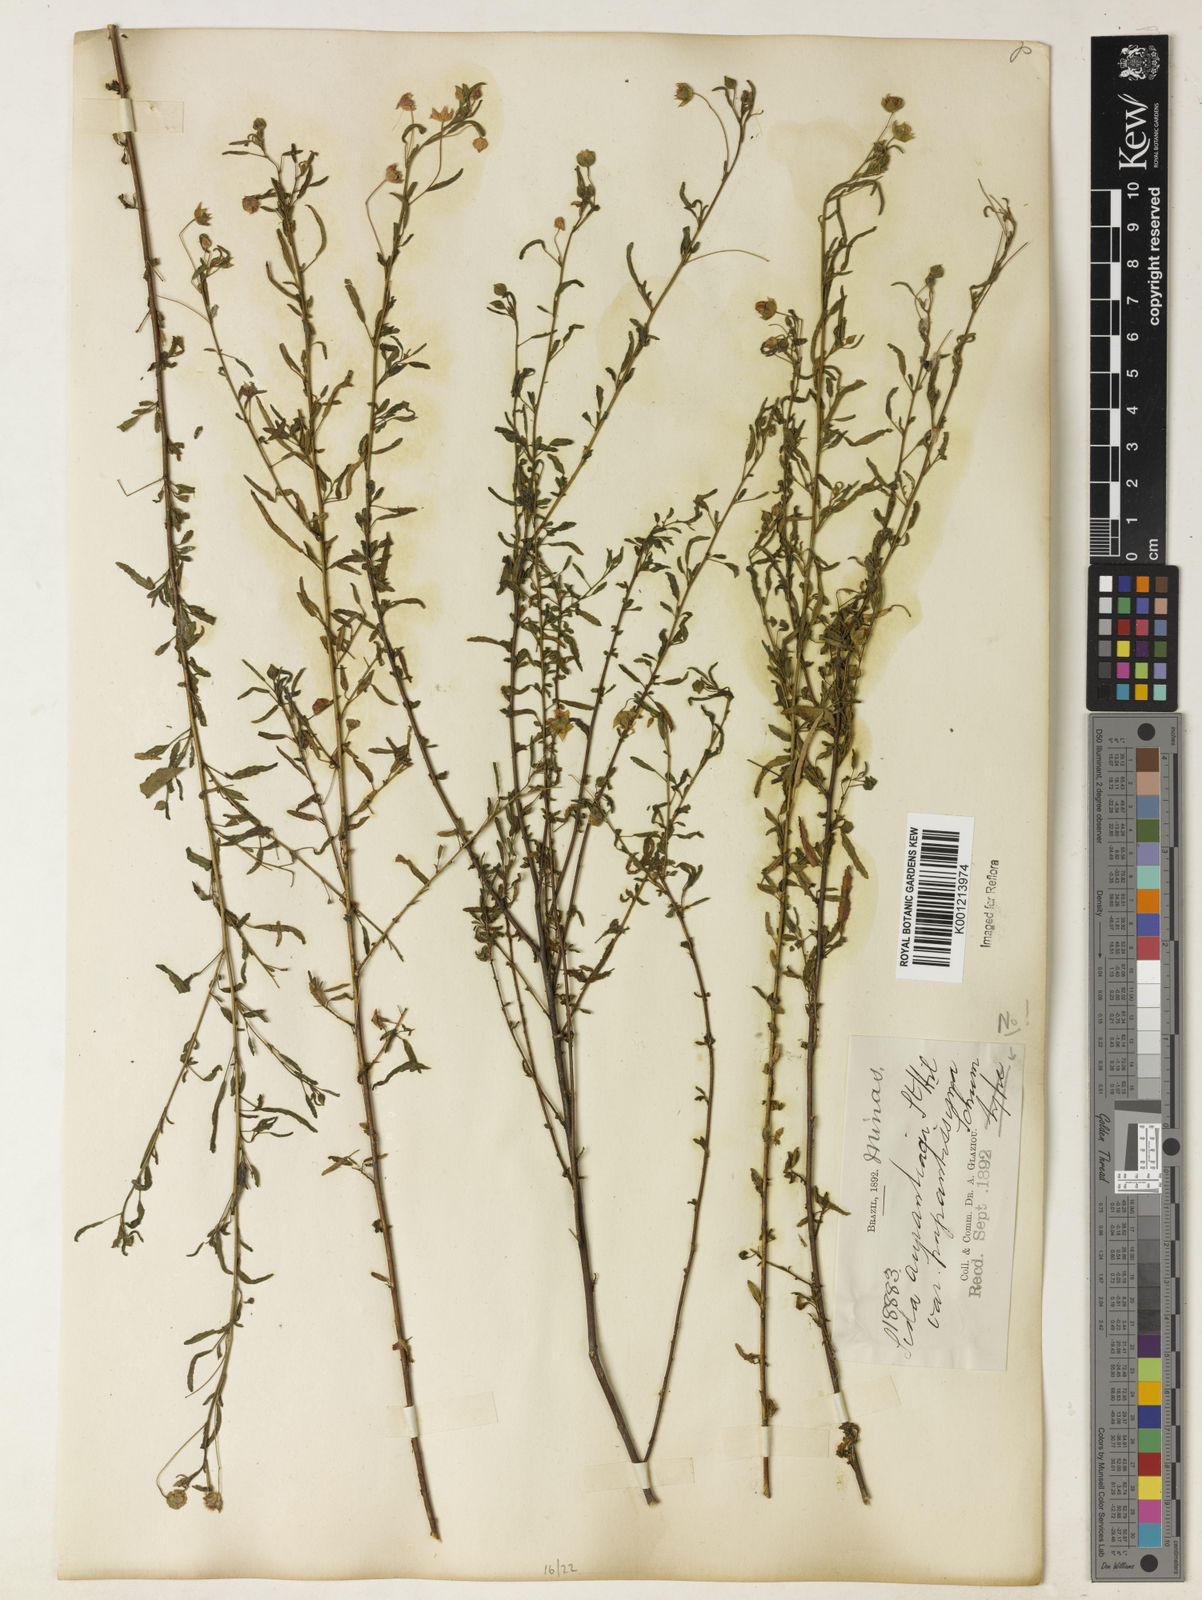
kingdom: Plantae
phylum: Tracheophyta
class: Magnoliopsida
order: Malvales
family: Malvaceae
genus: Sida
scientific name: Sida aurantiaca
